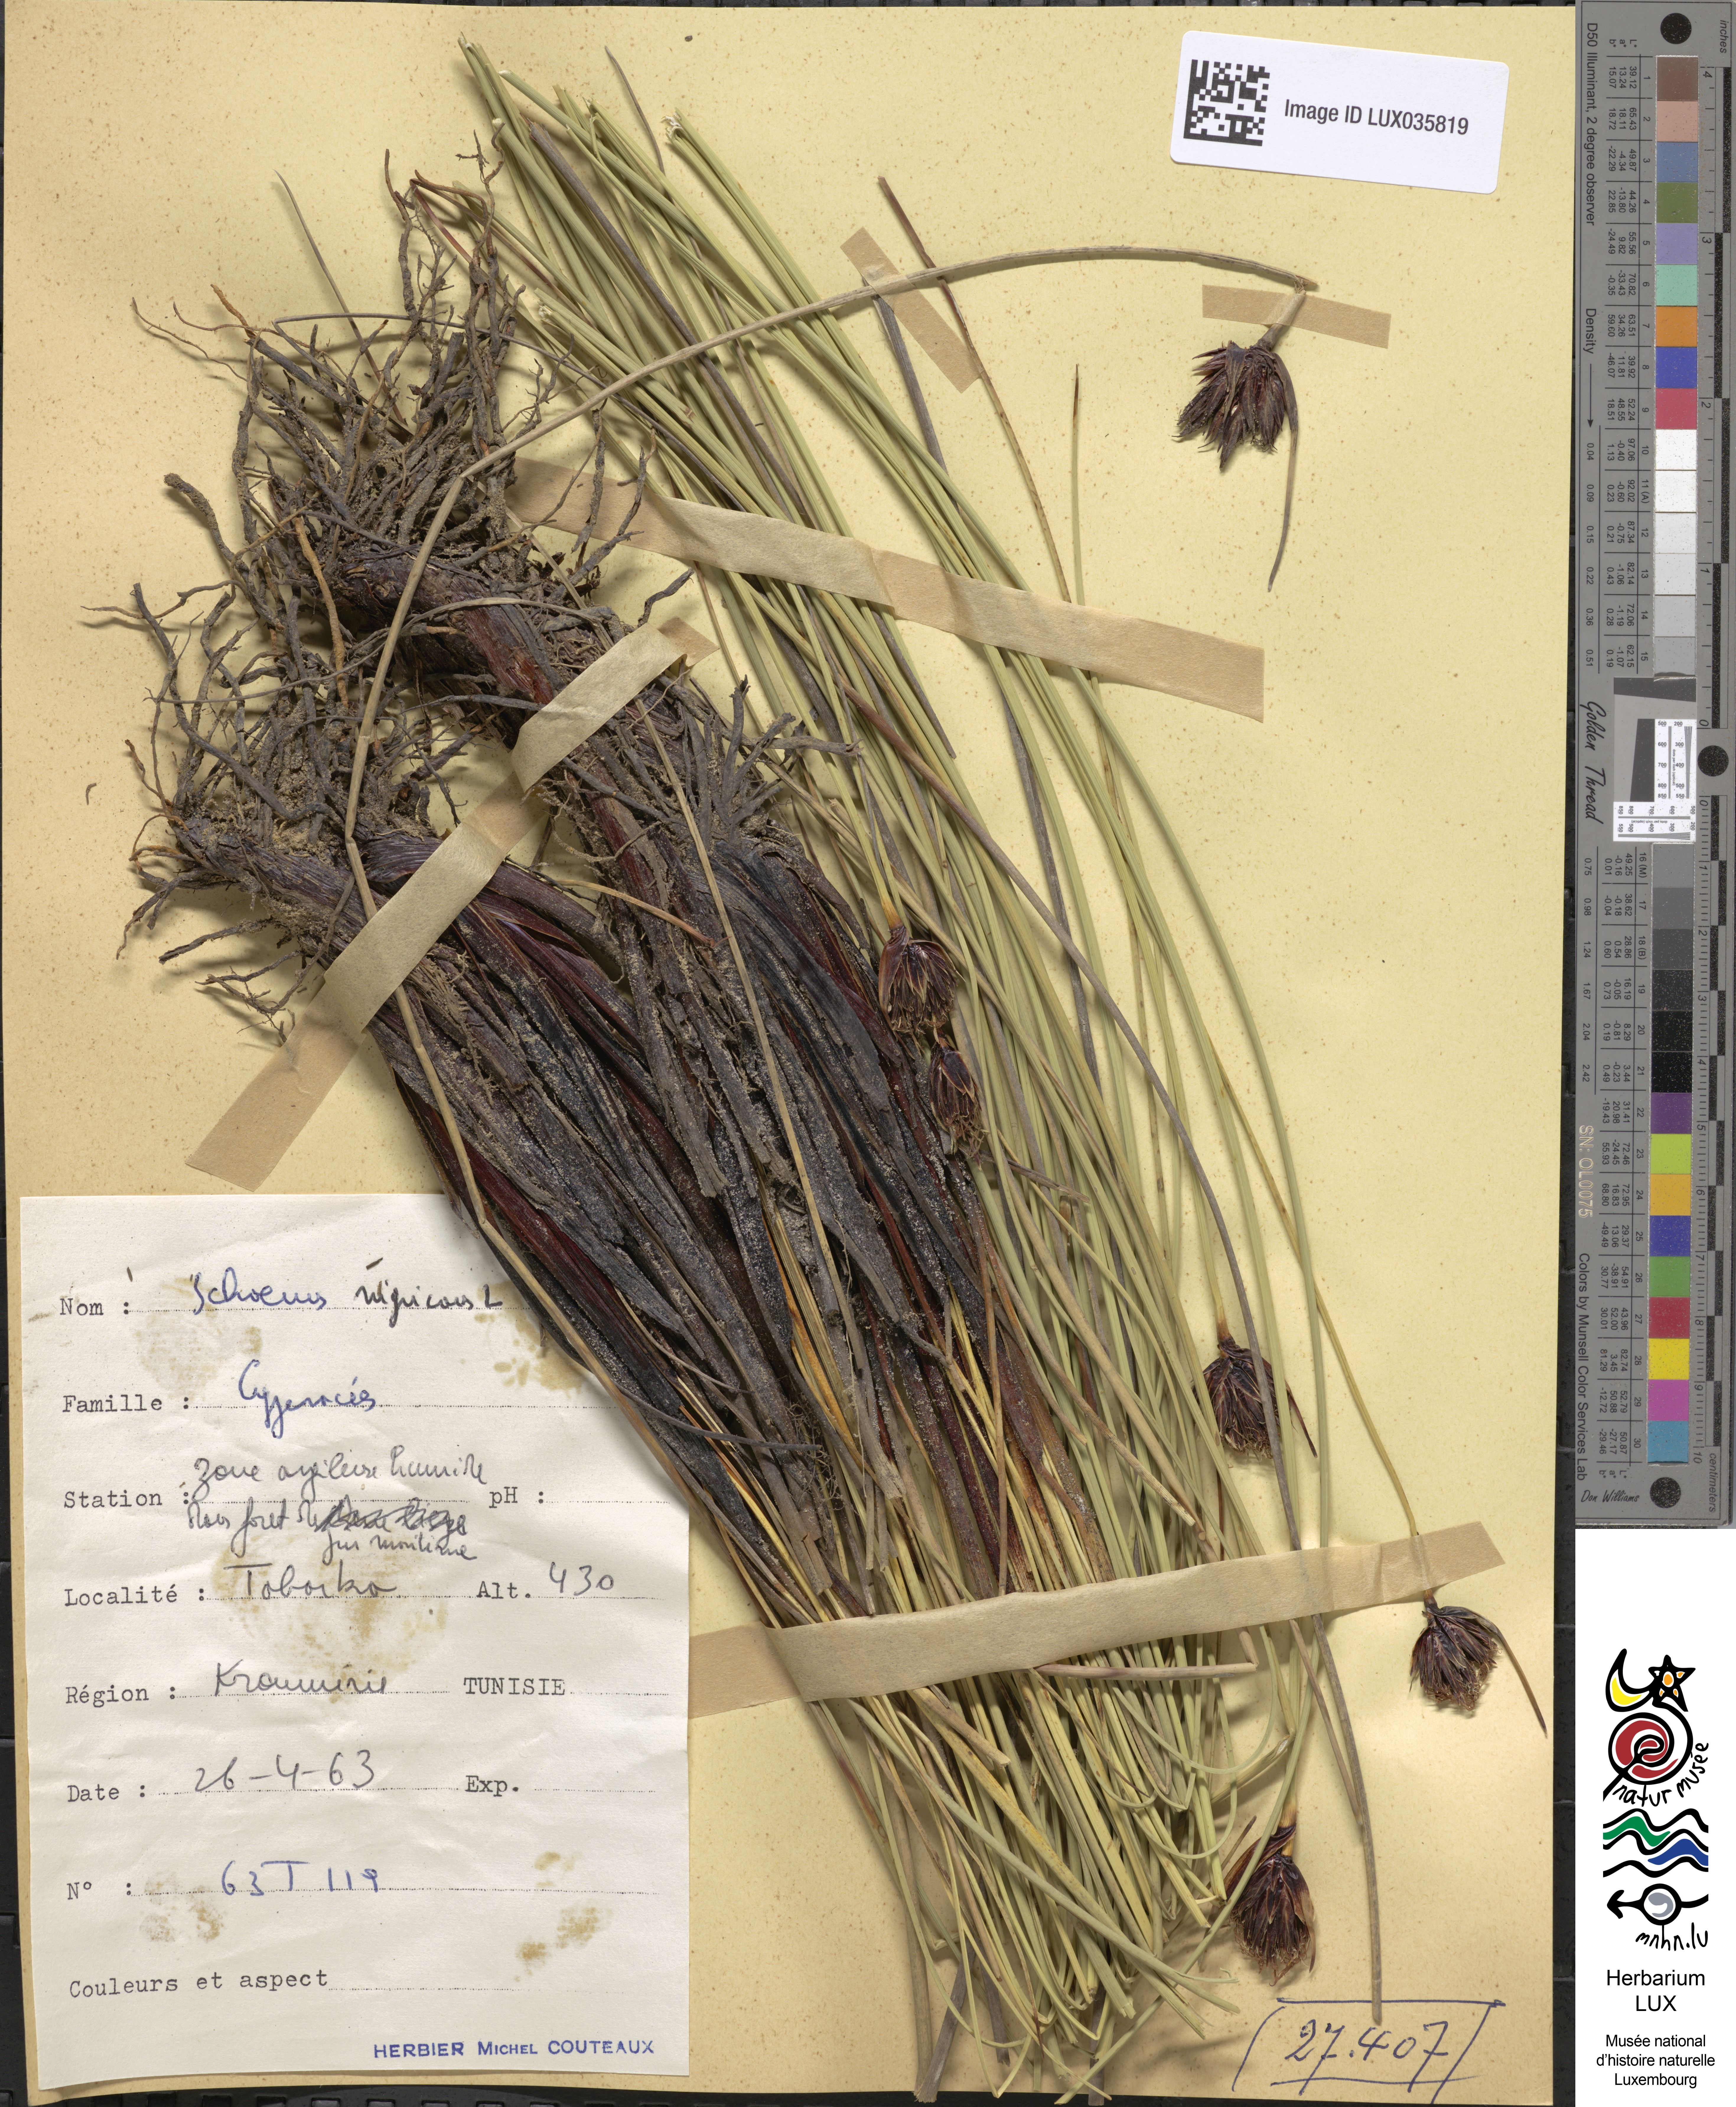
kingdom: Plantae
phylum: Tracheophyta
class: Liliopsida
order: Poales
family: Cyperaceae
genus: Schoenus
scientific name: Schoenus nigricans
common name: Black bog-rush
